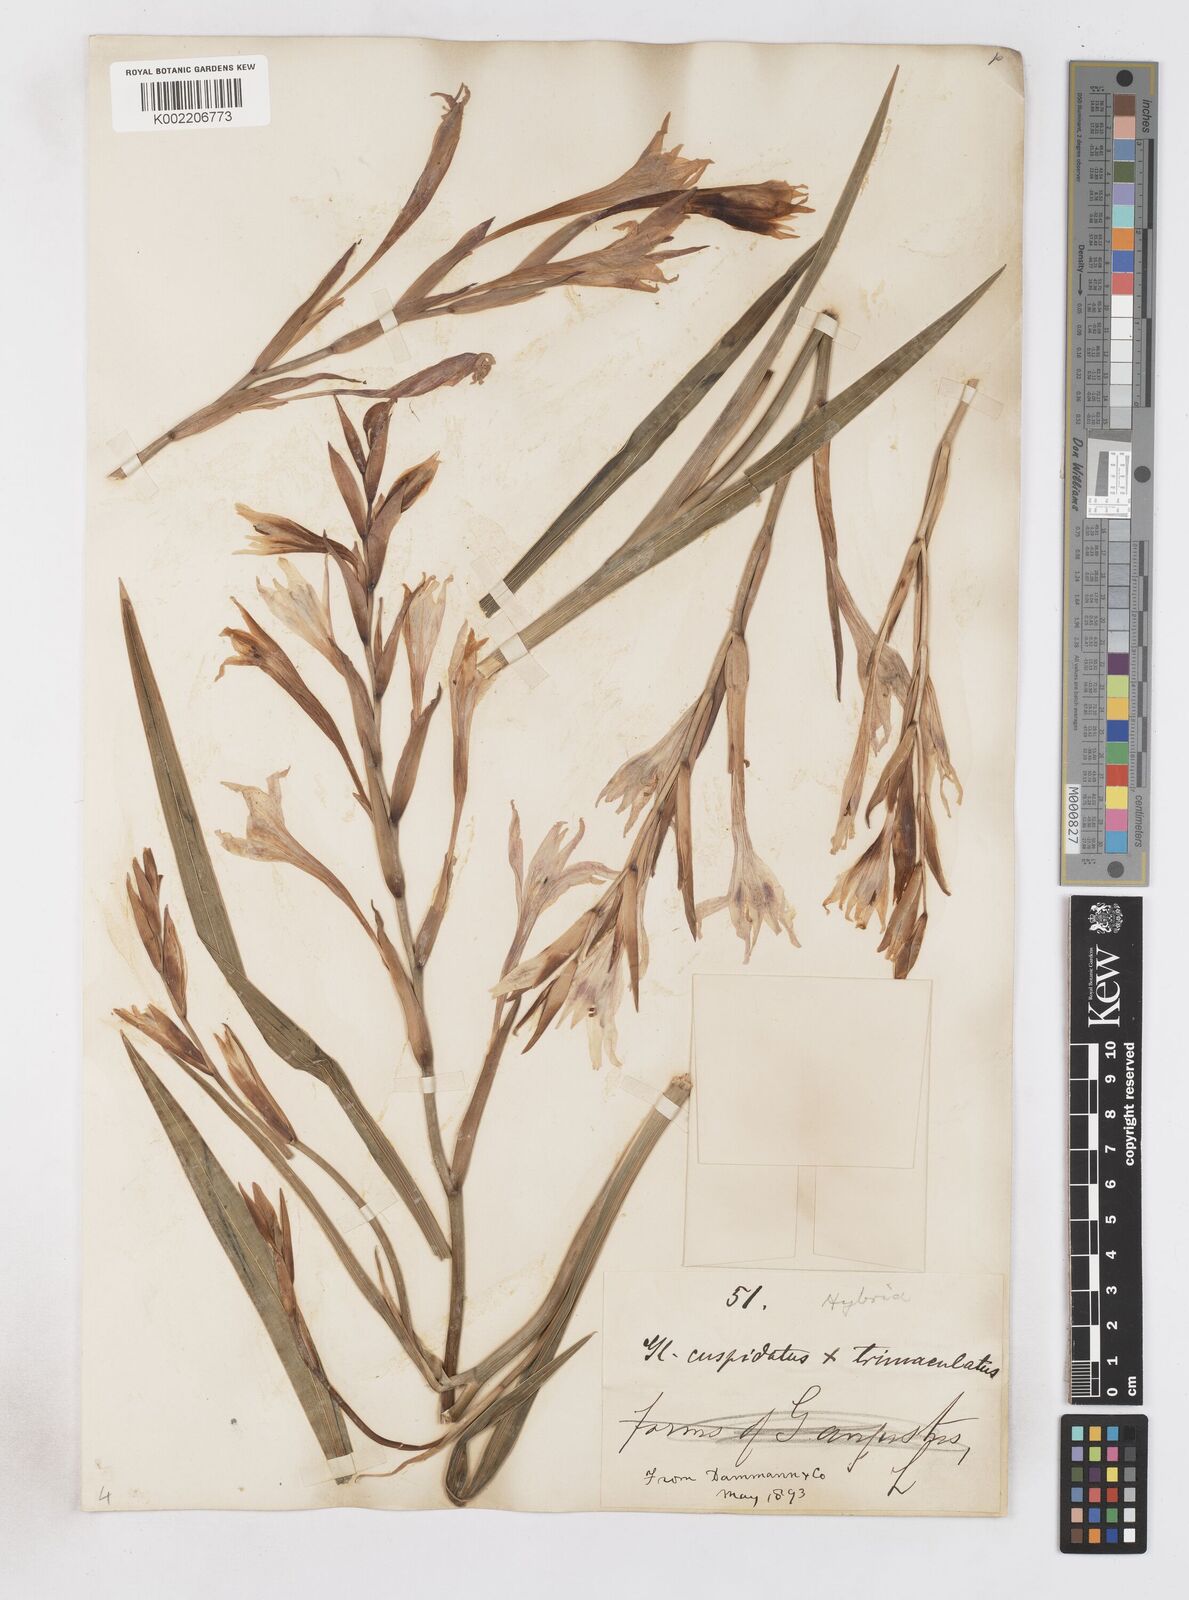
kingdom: Plantae
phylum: Tracheophyta
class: Liliopsida
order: Asparagales
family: Iridaceae
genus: Gladiolus
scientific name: Gladiolus undulatus
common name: Large painted-lady
